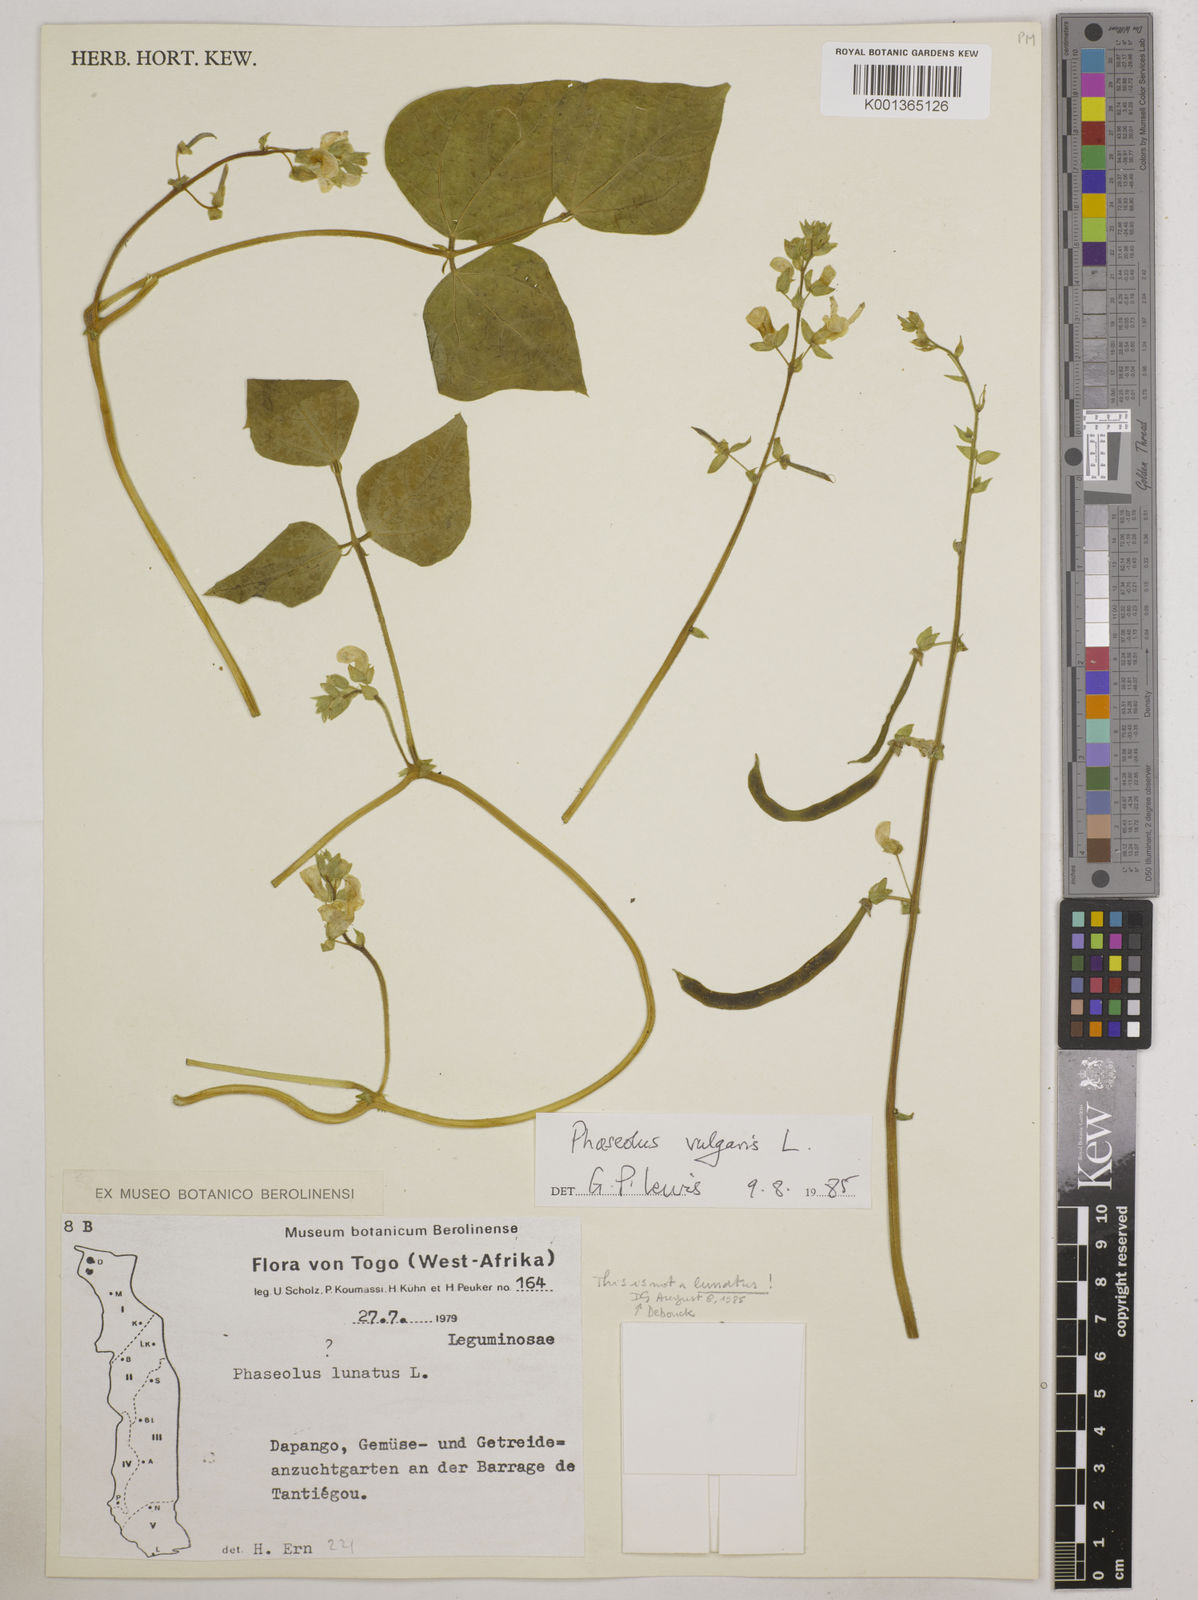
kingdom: Plantae
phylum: Tracheophyta
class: Magnoliopsida
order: Fabales
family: Fabaceae
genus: Phaseolus
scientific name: Phaseolus vulgaris
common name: Bean
